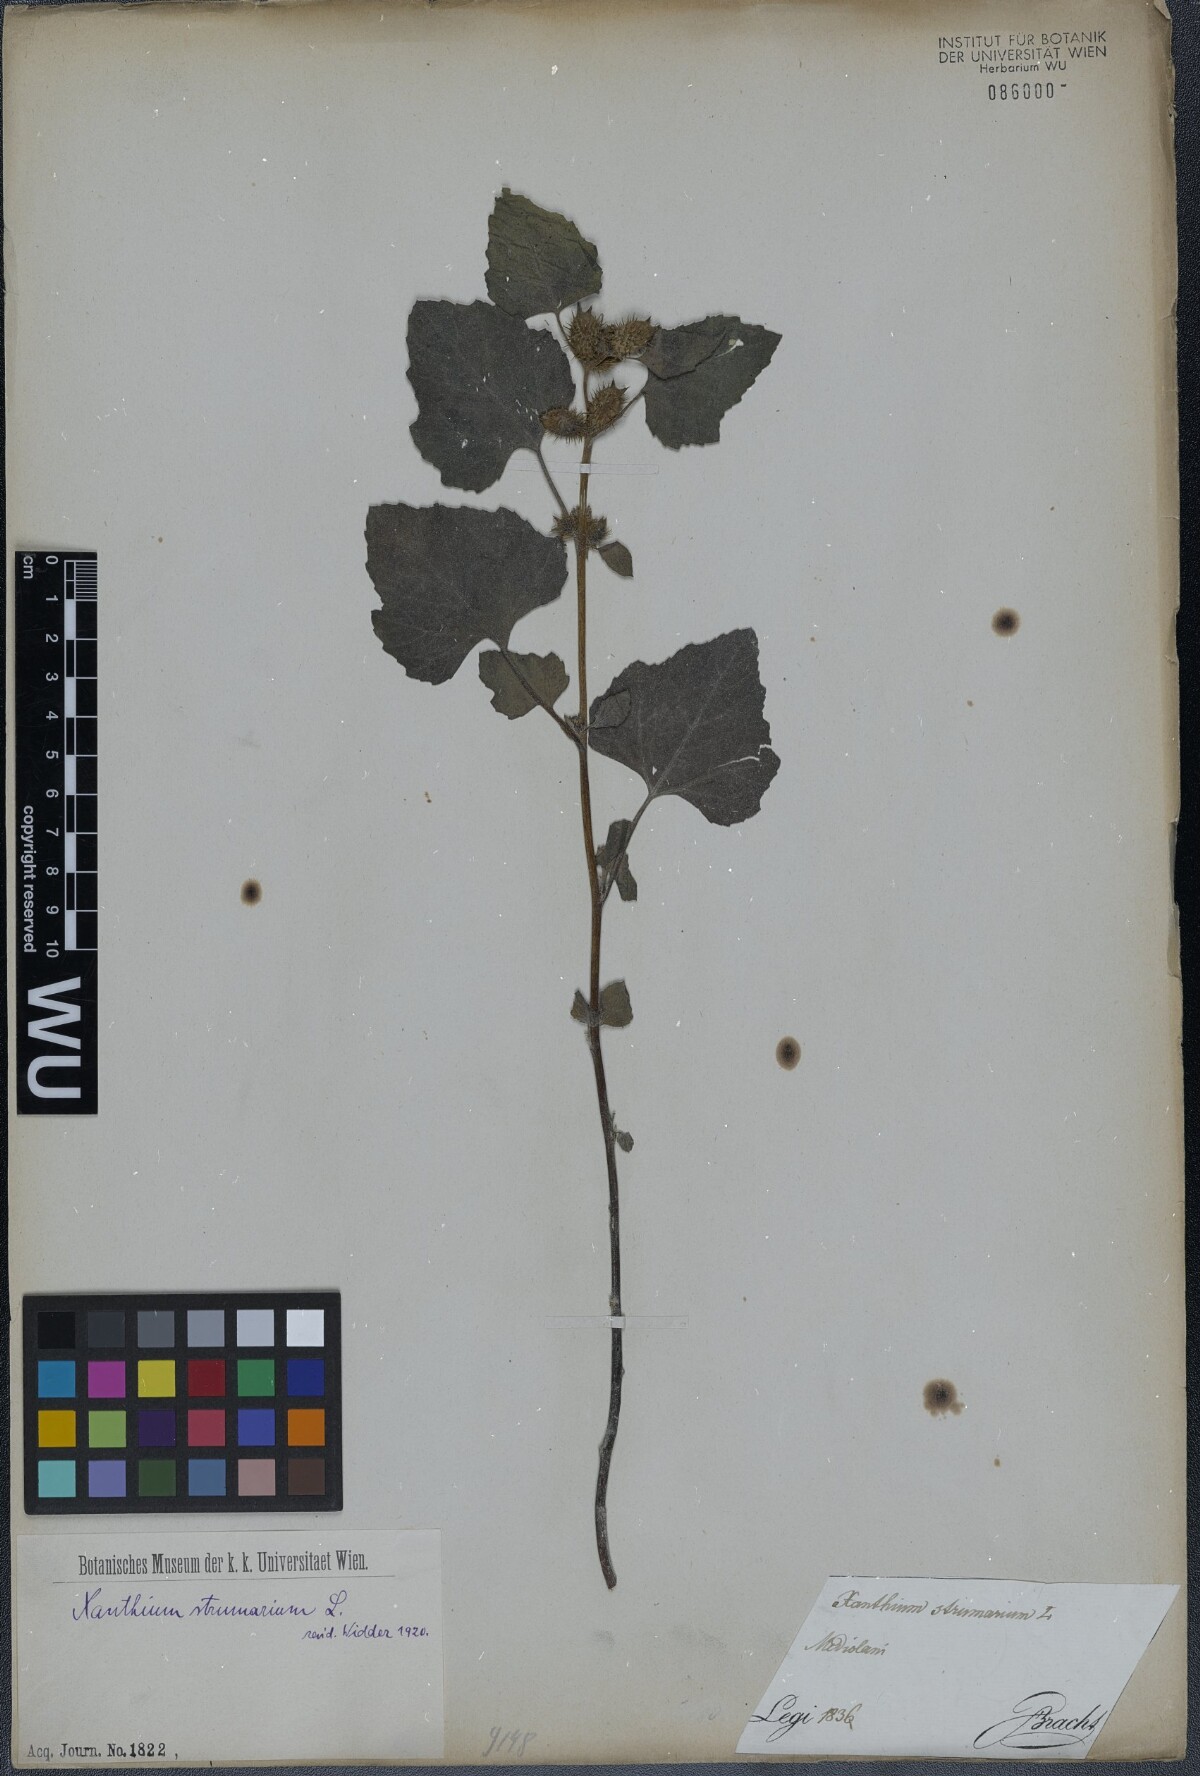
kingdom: Plantae
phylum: Tracheophyta
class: Magnoliopsida
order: Asterales
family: Asteraceae
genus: Xanthium
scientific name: Xanthium strumarium
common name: Rough cocklebur
